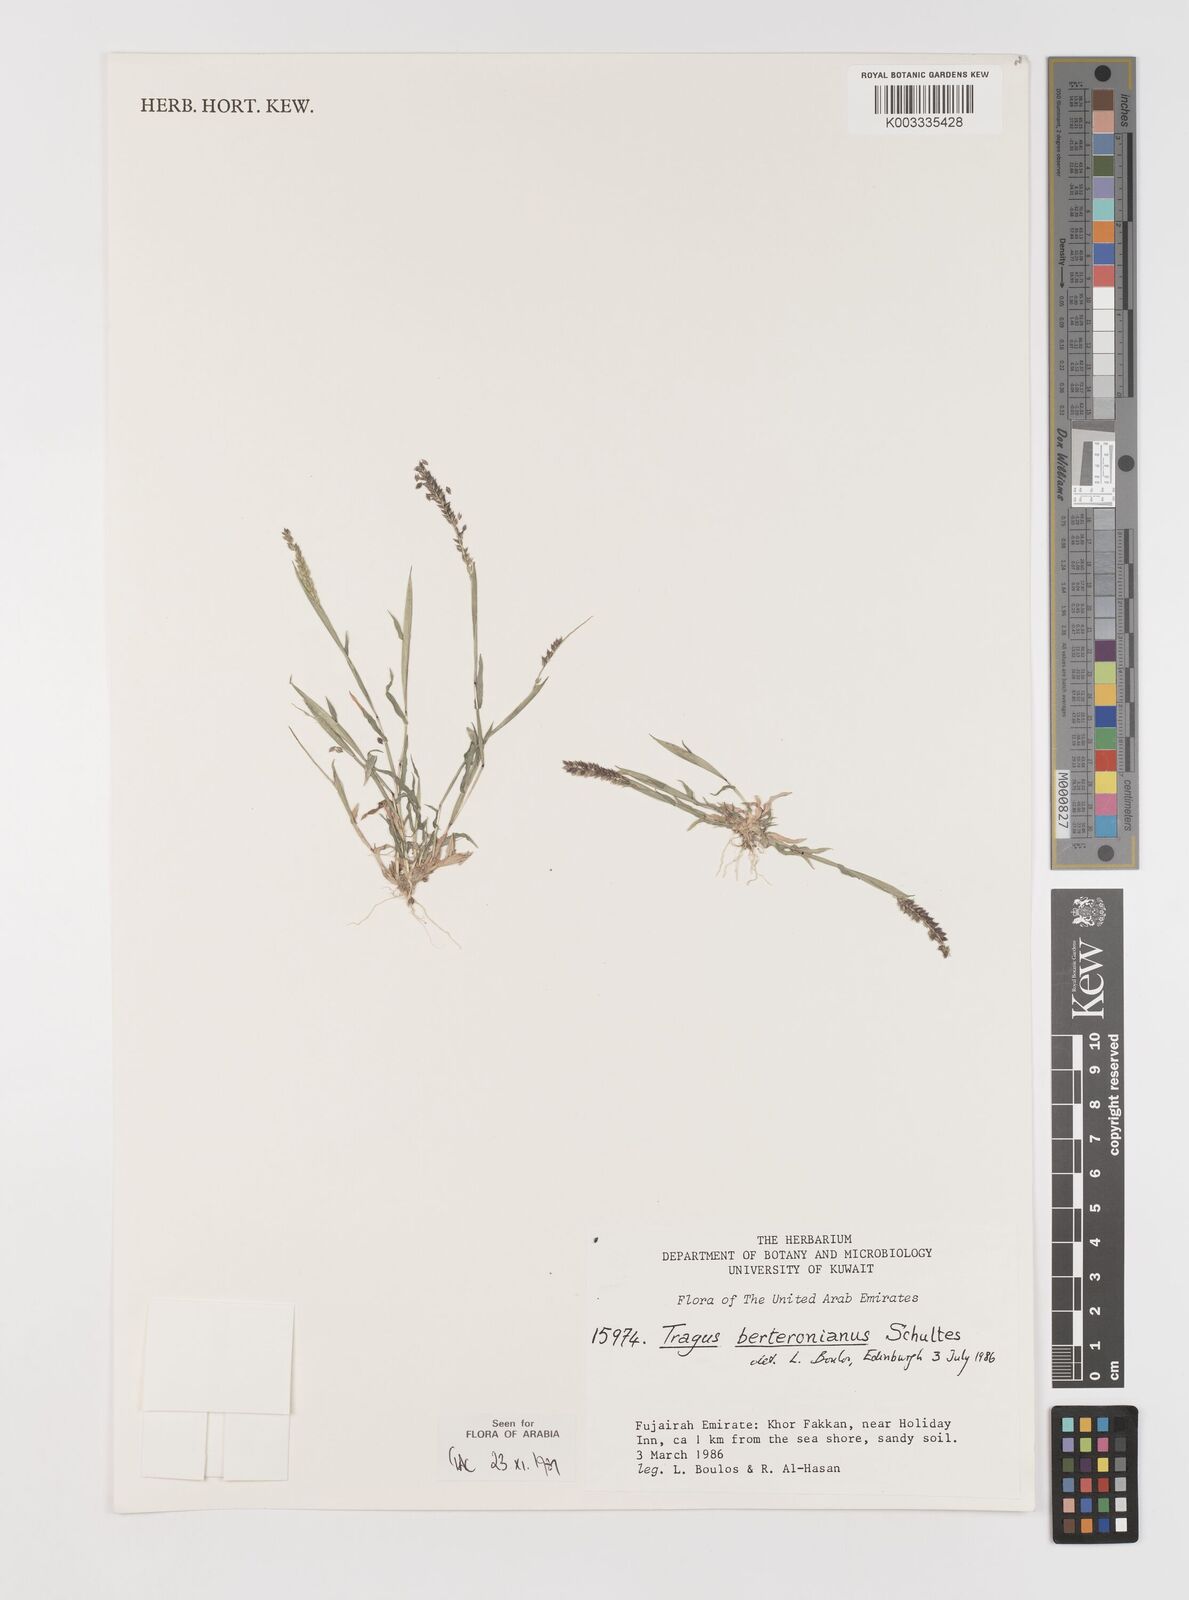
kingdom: Plantae
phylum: Tracheophyta
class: Liliopsida
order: Poales
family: Poaceae
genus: Tragus
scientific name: Tragus berteronianus
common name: African bur-grass
